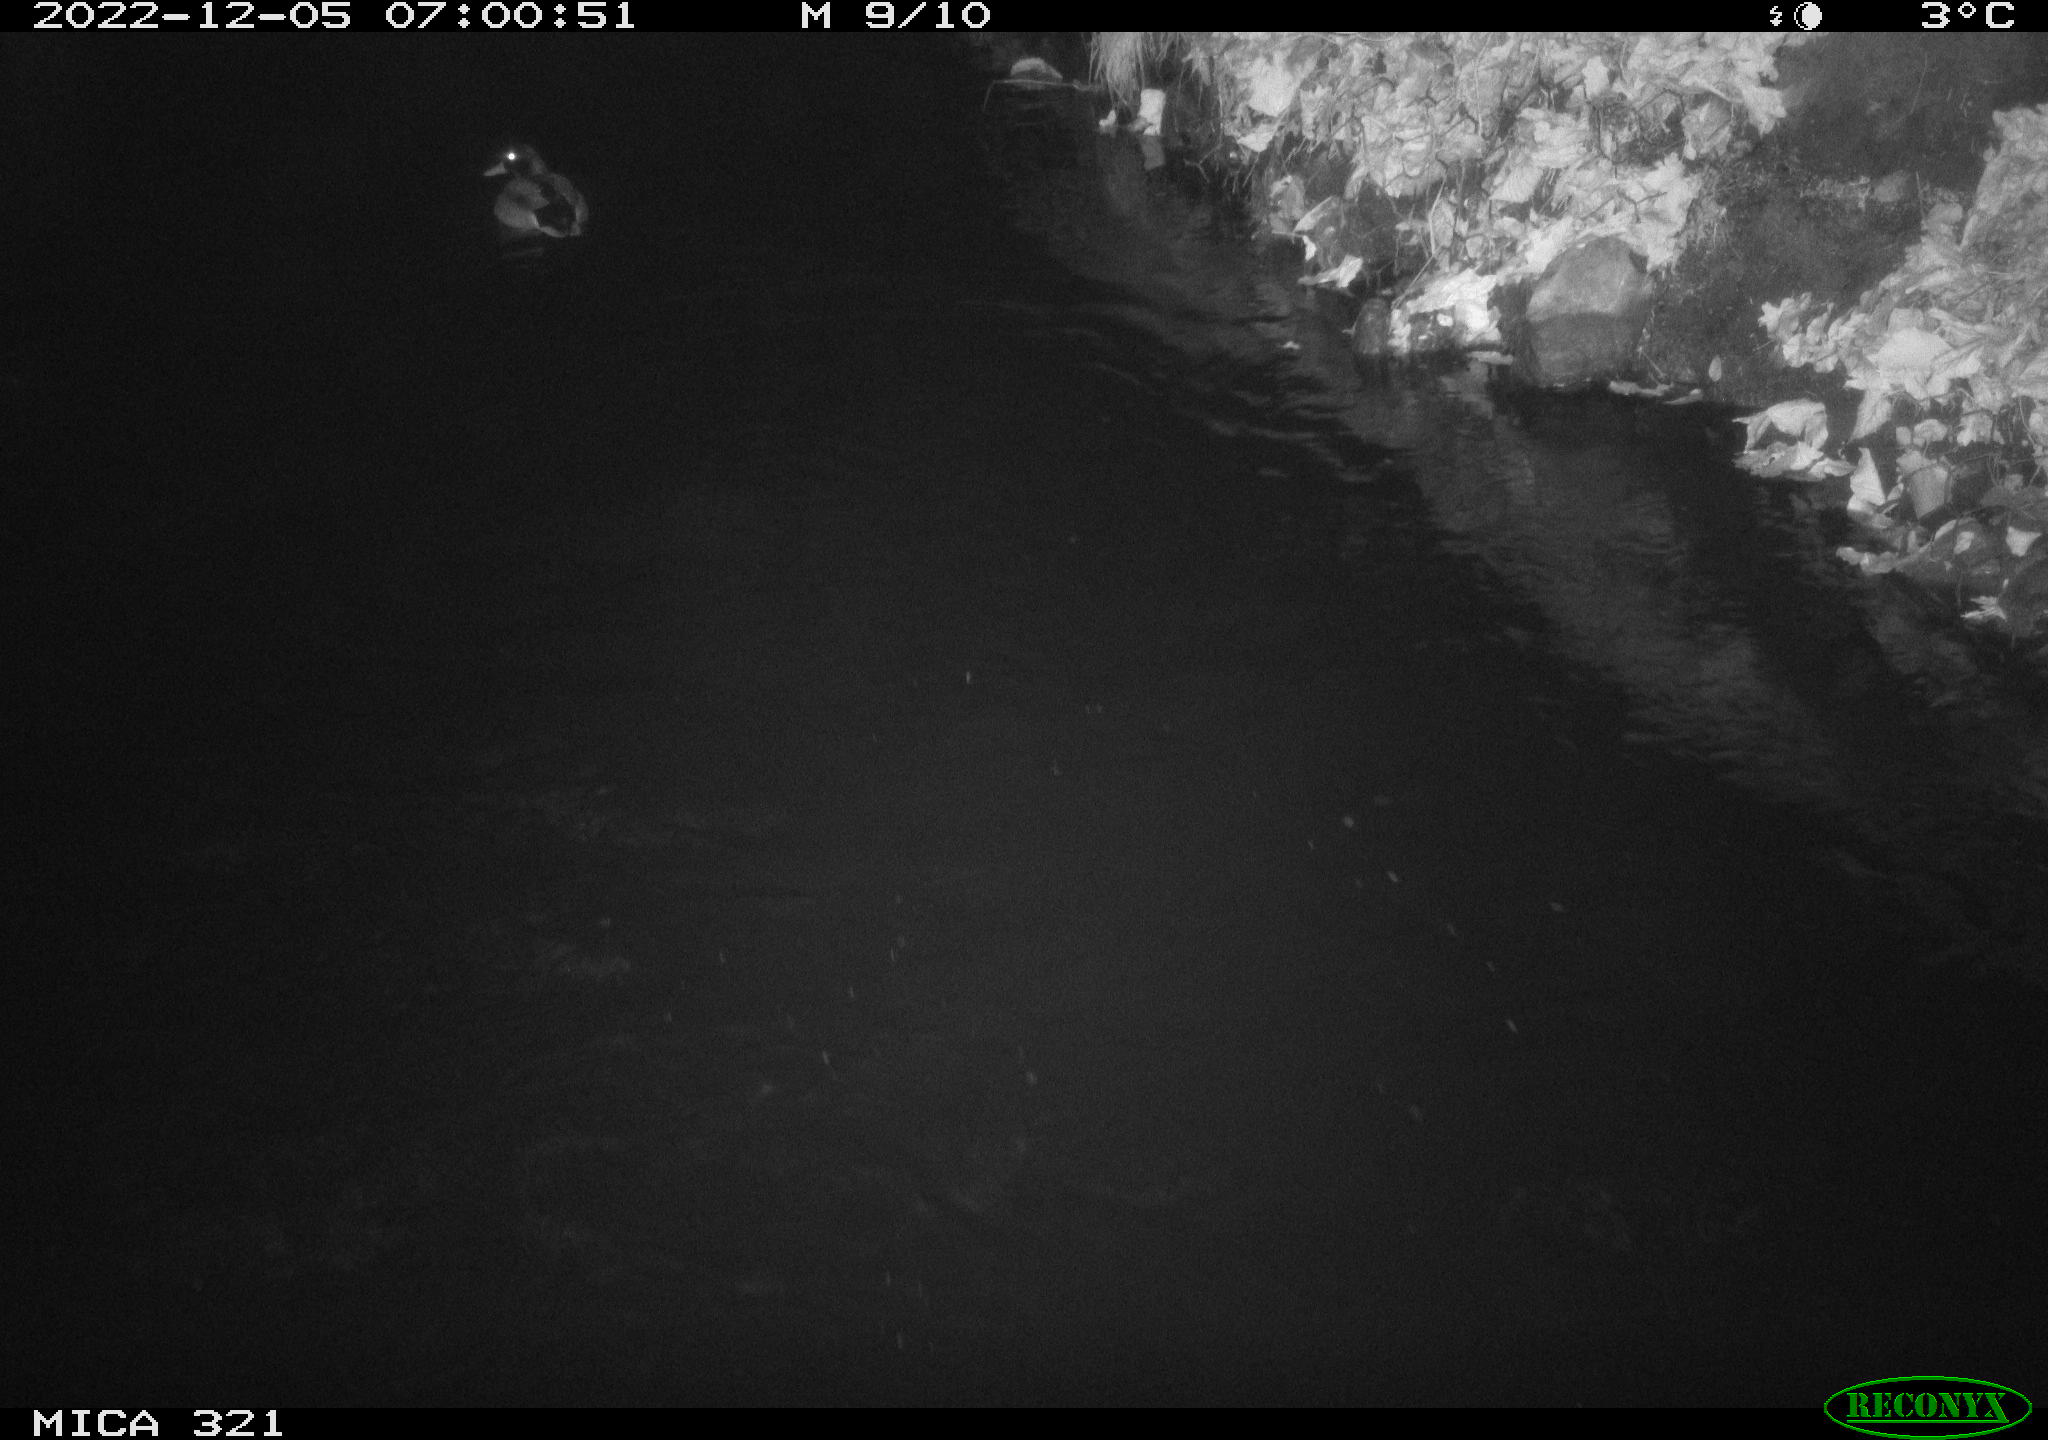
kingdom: Animalia
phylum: Chordata
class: Aves
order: Anseriformes
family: Anatidae
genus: Anas
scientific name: Anas
